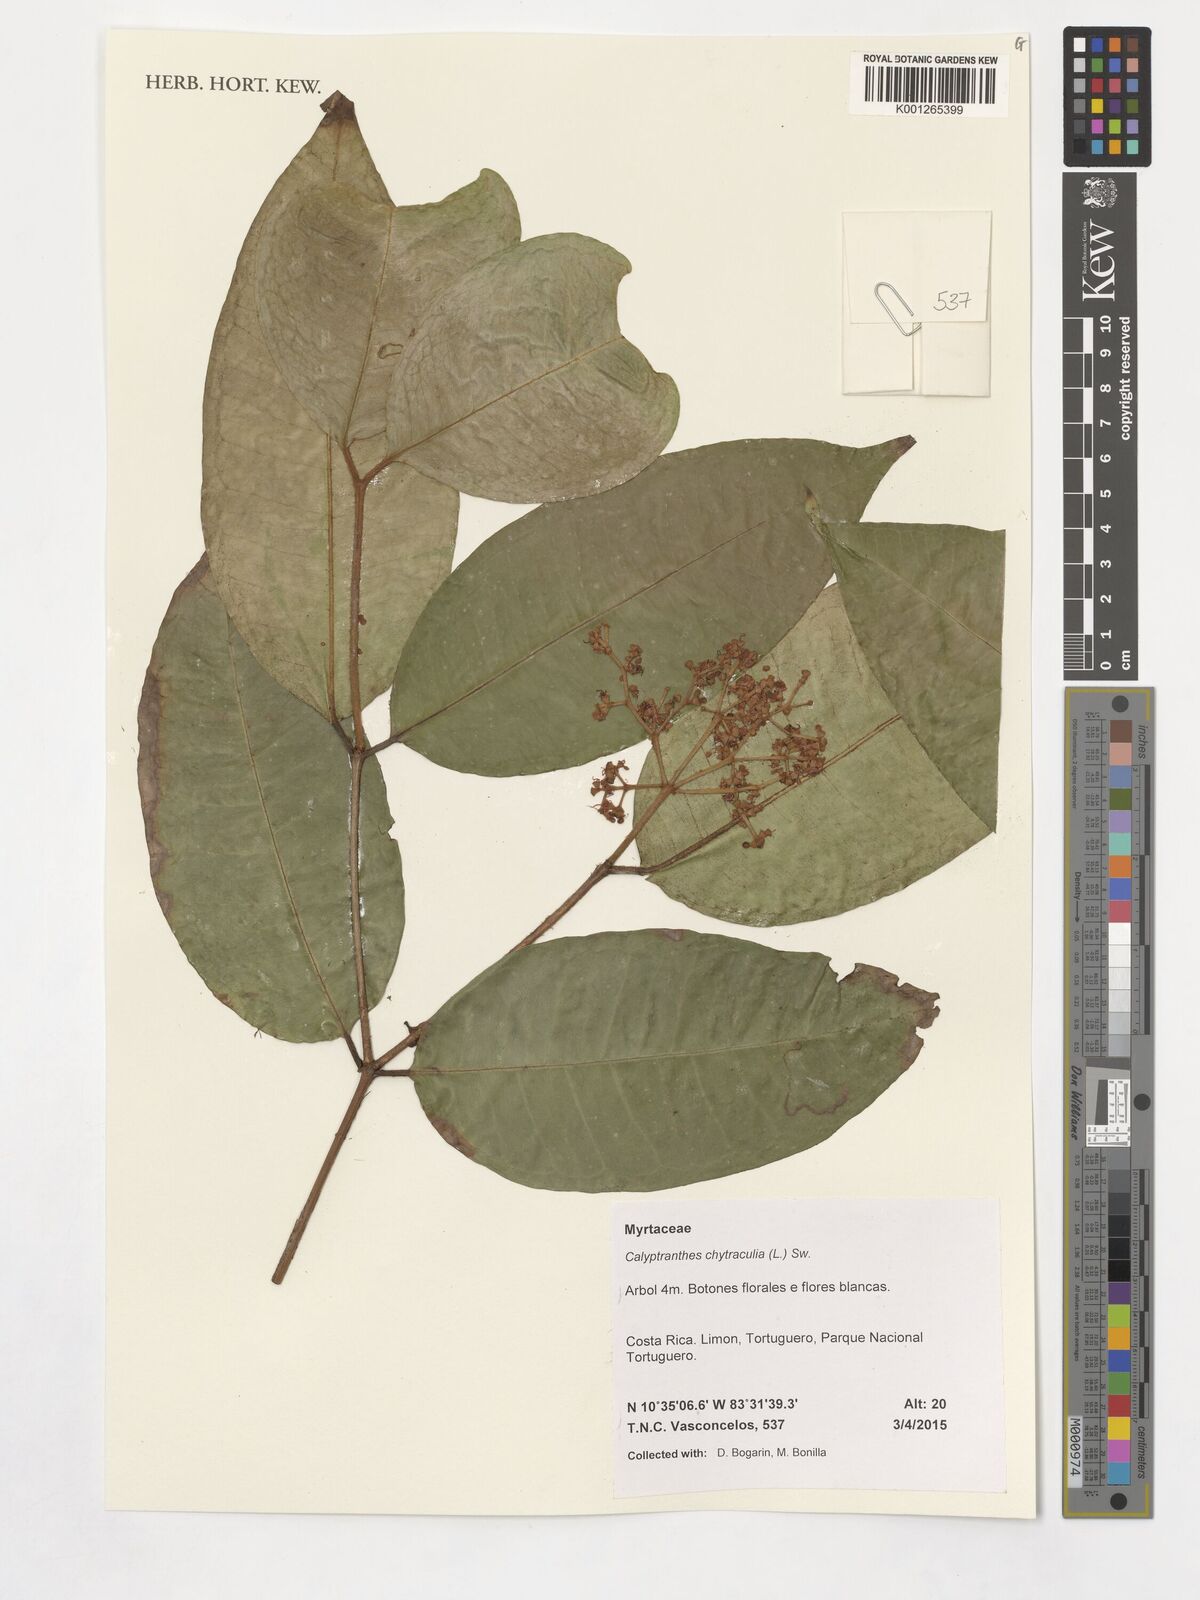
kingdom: Plantae
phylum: Tracheophyta
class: Magnoliopsida
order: Myrtales
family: Myrtaceae
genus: Myrcia
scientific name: Myrcia chytraculia
